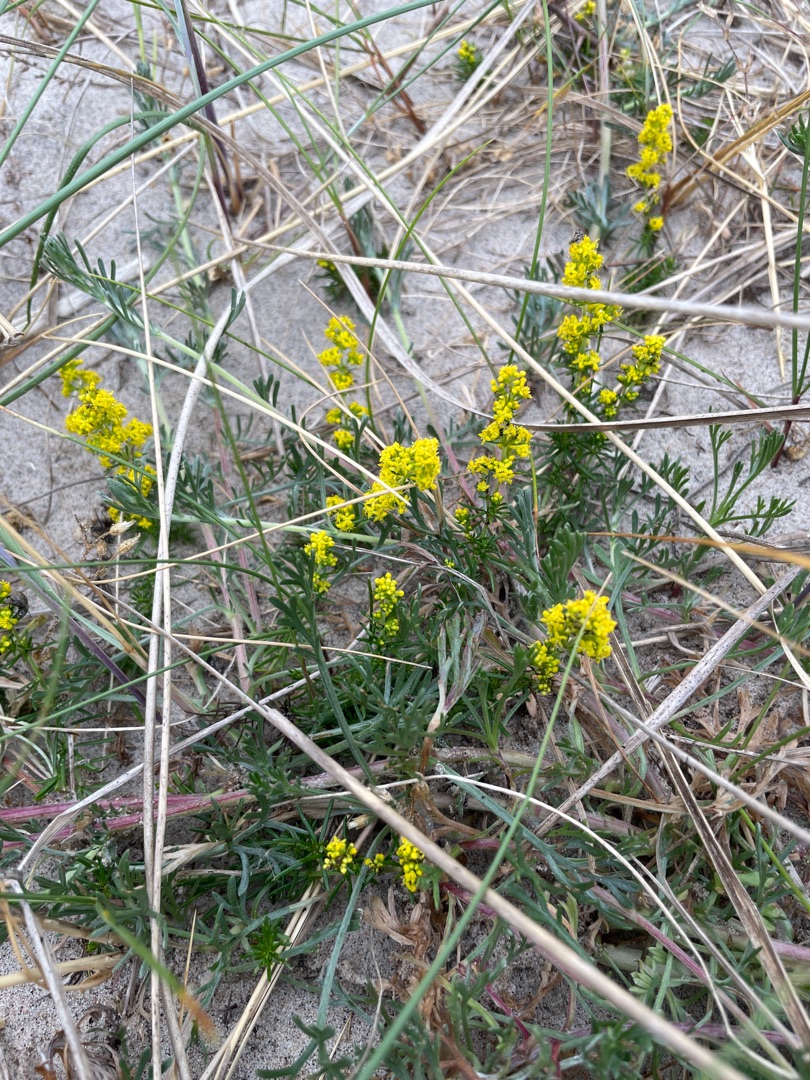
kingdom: Plantae
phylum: Tracheophyta
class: Magnoliopsida
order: Gentianales
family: Rubiaceae
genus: Galium
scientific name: Galium verum
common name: Gul snerre
